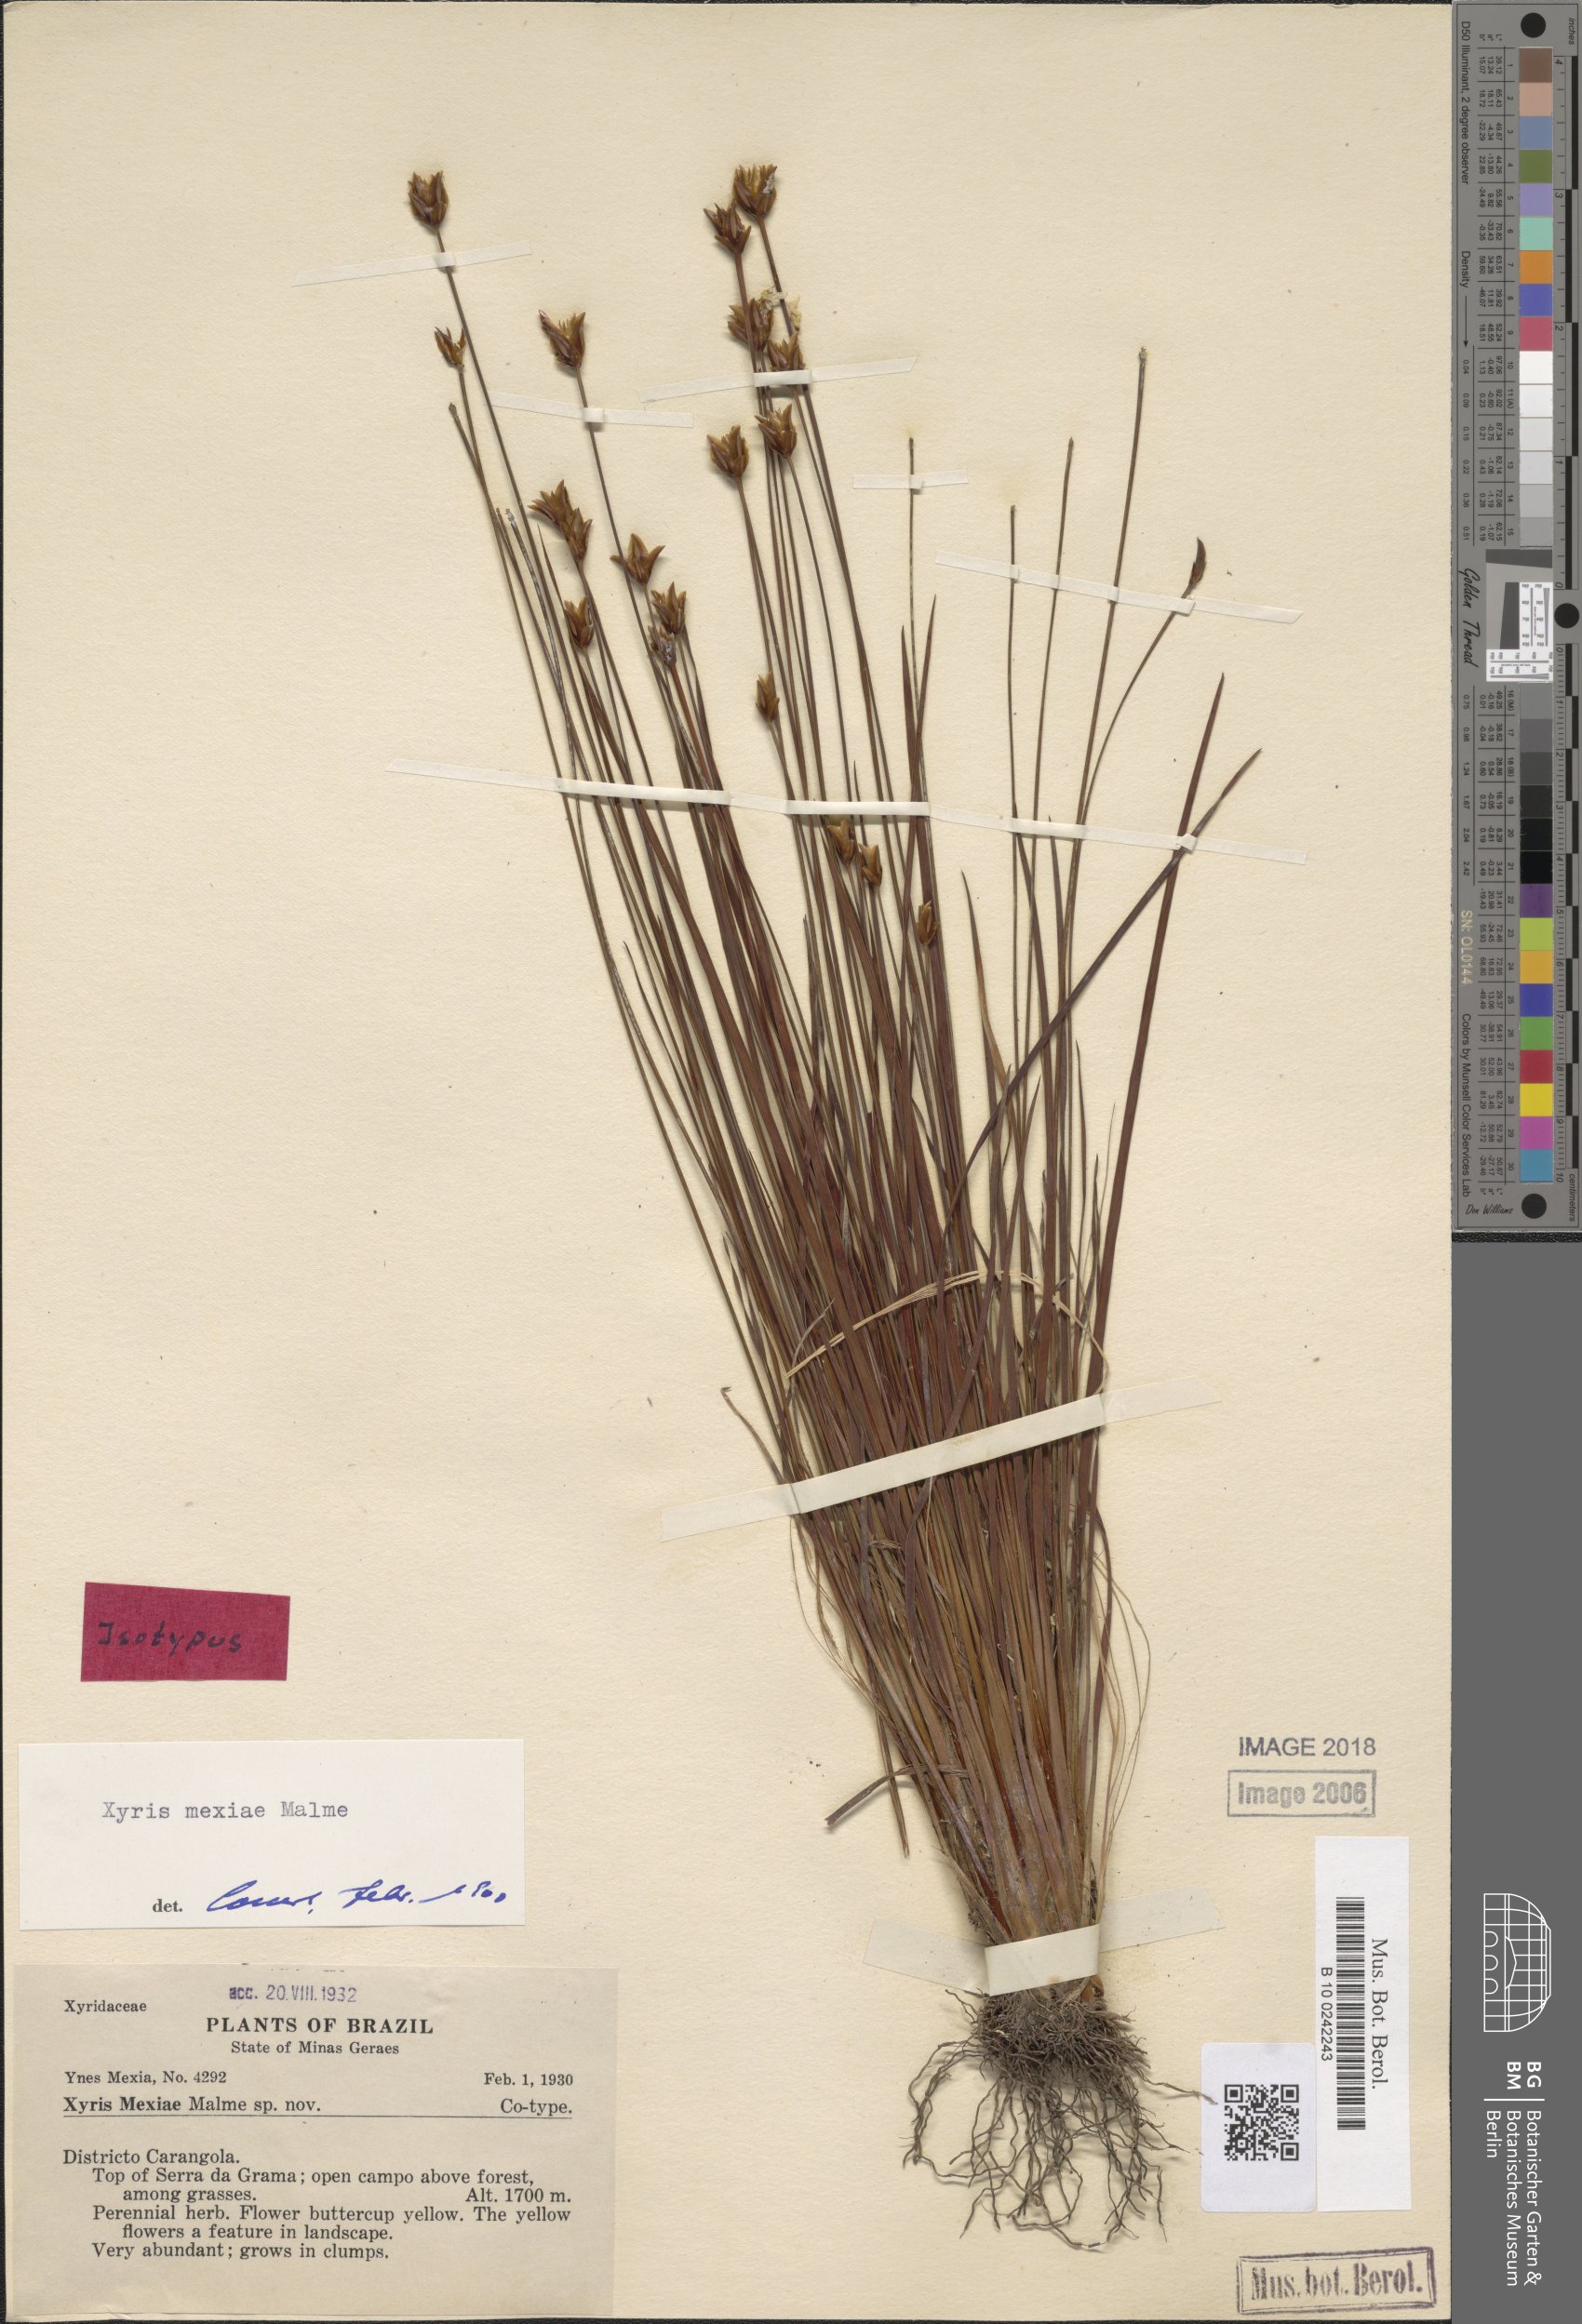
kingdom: Plantae
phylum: Tracheophyta
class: Liliopsida
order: Poales
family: Xyridaceae
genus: Xyris
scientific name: Xyris mexiae
